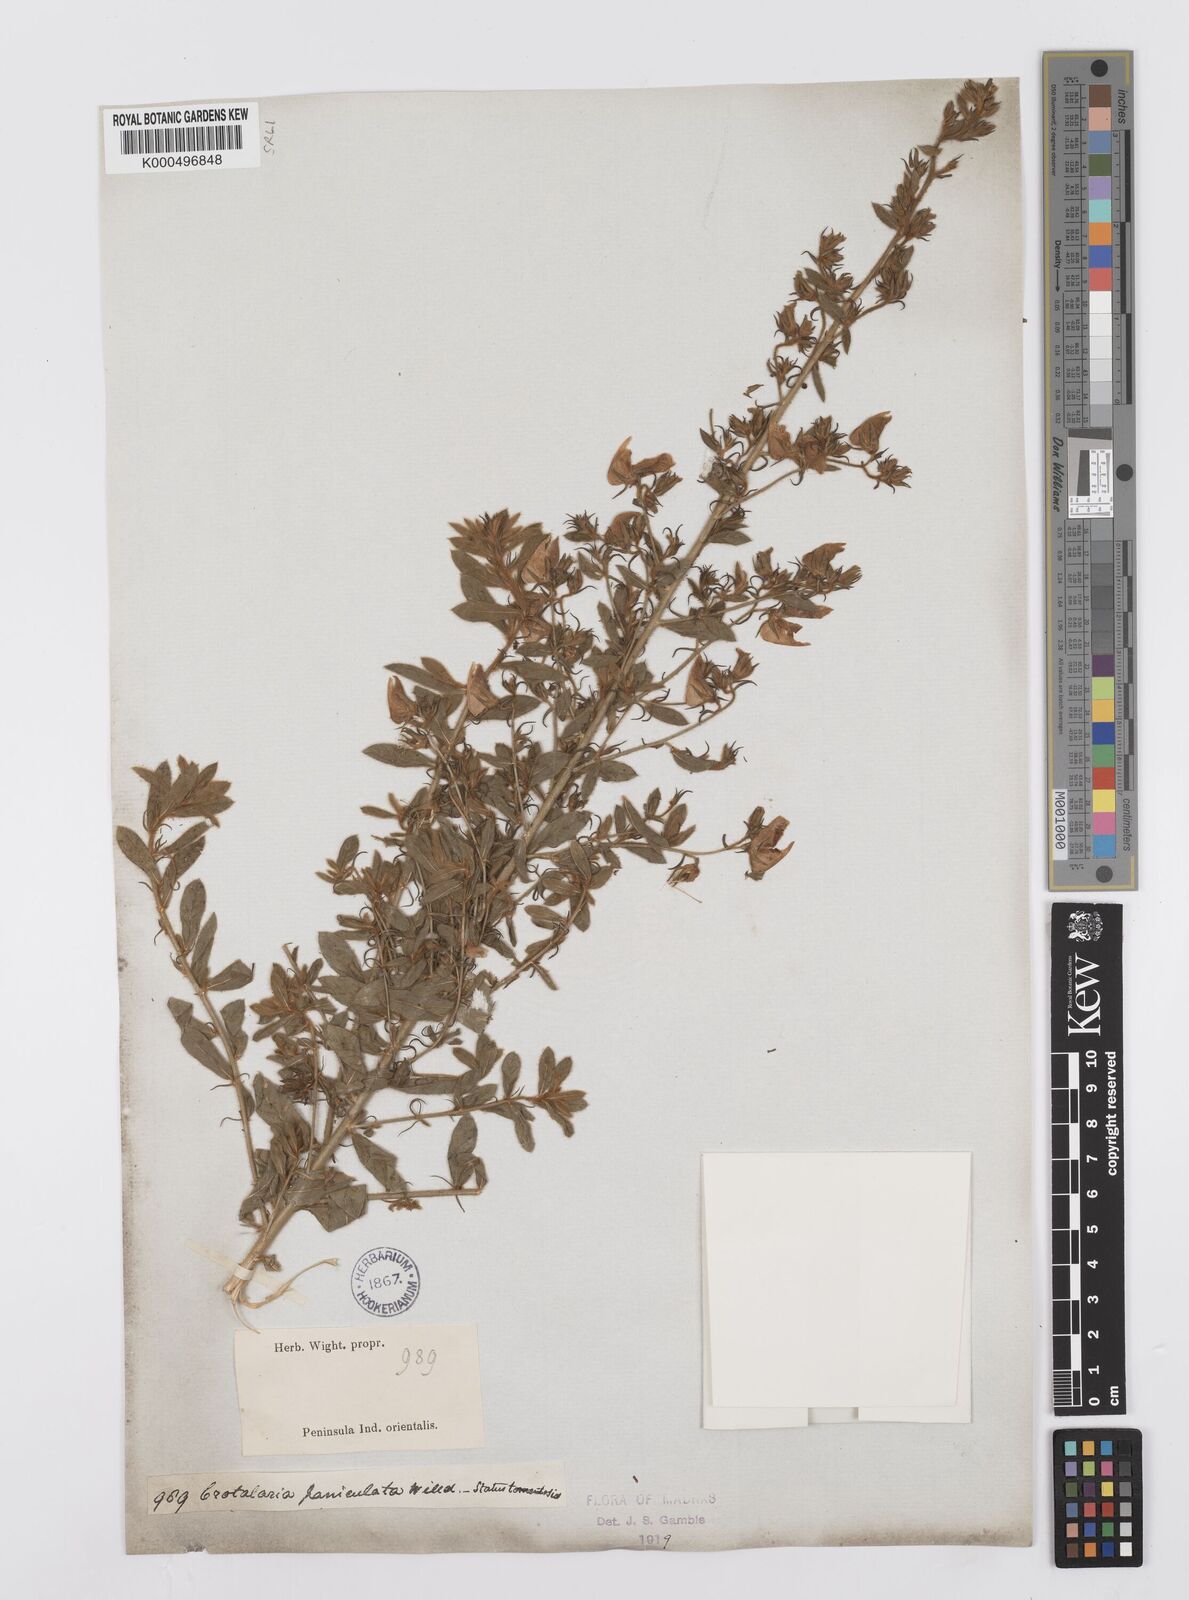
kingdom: Plantae
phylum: Tracheophyta
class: Magnoliopsida
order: Fabales
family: Fabaceae
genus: Crotalaria
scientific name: Crotalaria paniculata
